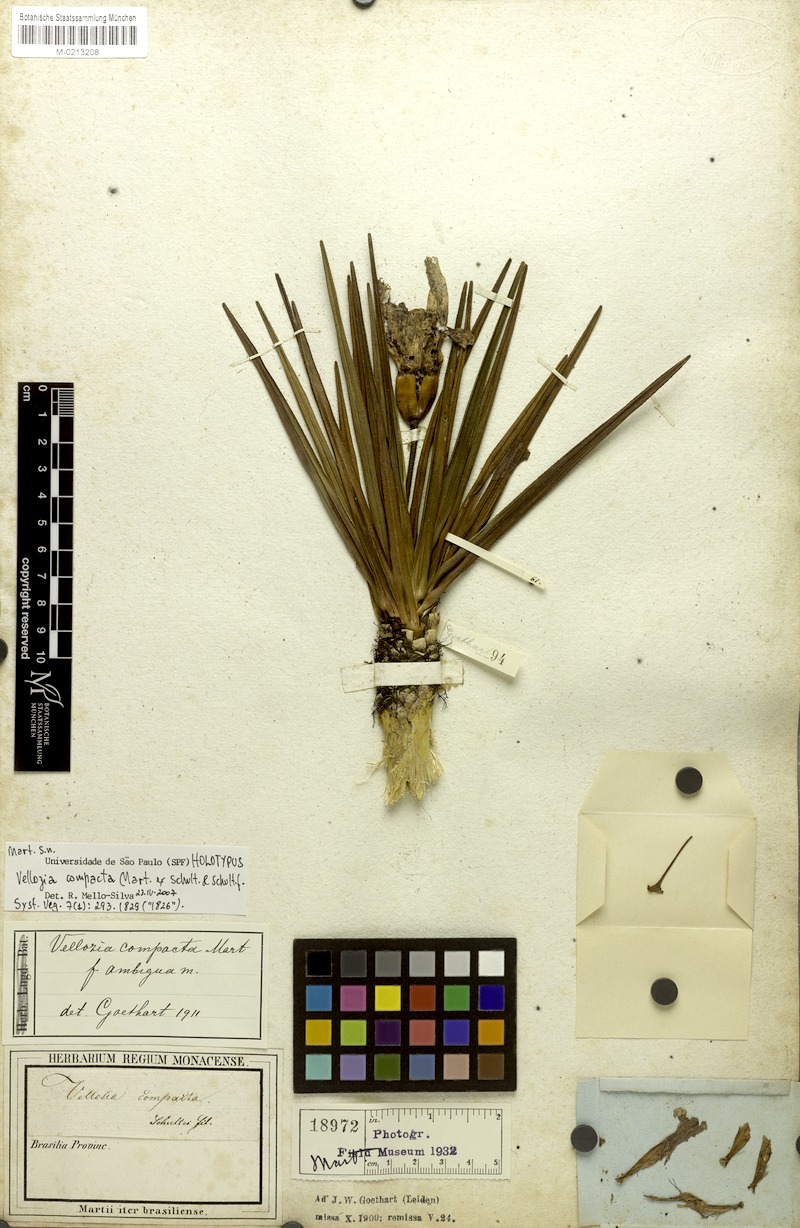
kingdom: Plantae
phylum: Tracheophyta
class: Liliopsida
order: Pandanales
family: Velloziaceae
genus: Vellozia
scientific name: Vellozia compacta
